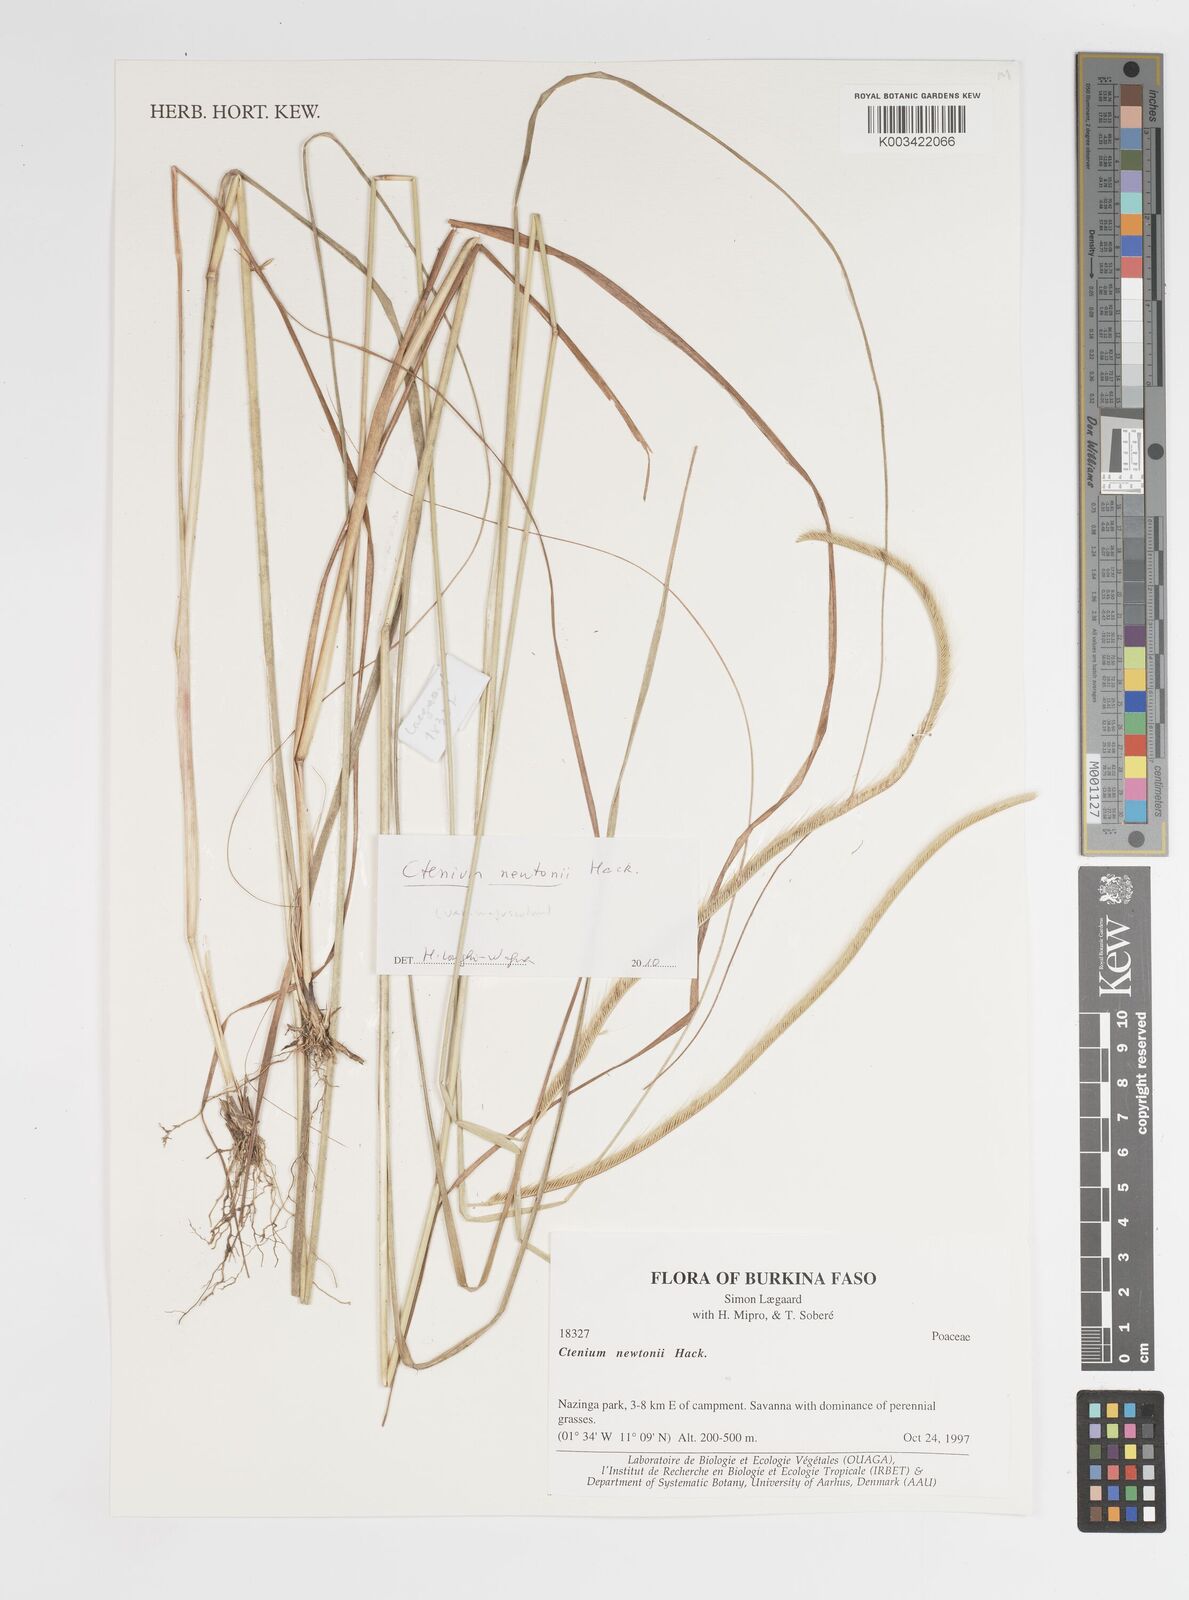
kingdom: Plantae
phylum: Tracheophyta
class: Liliopsida
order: Poales
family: Poaceae
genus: Ctenium
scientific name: Ctenium newtonii
